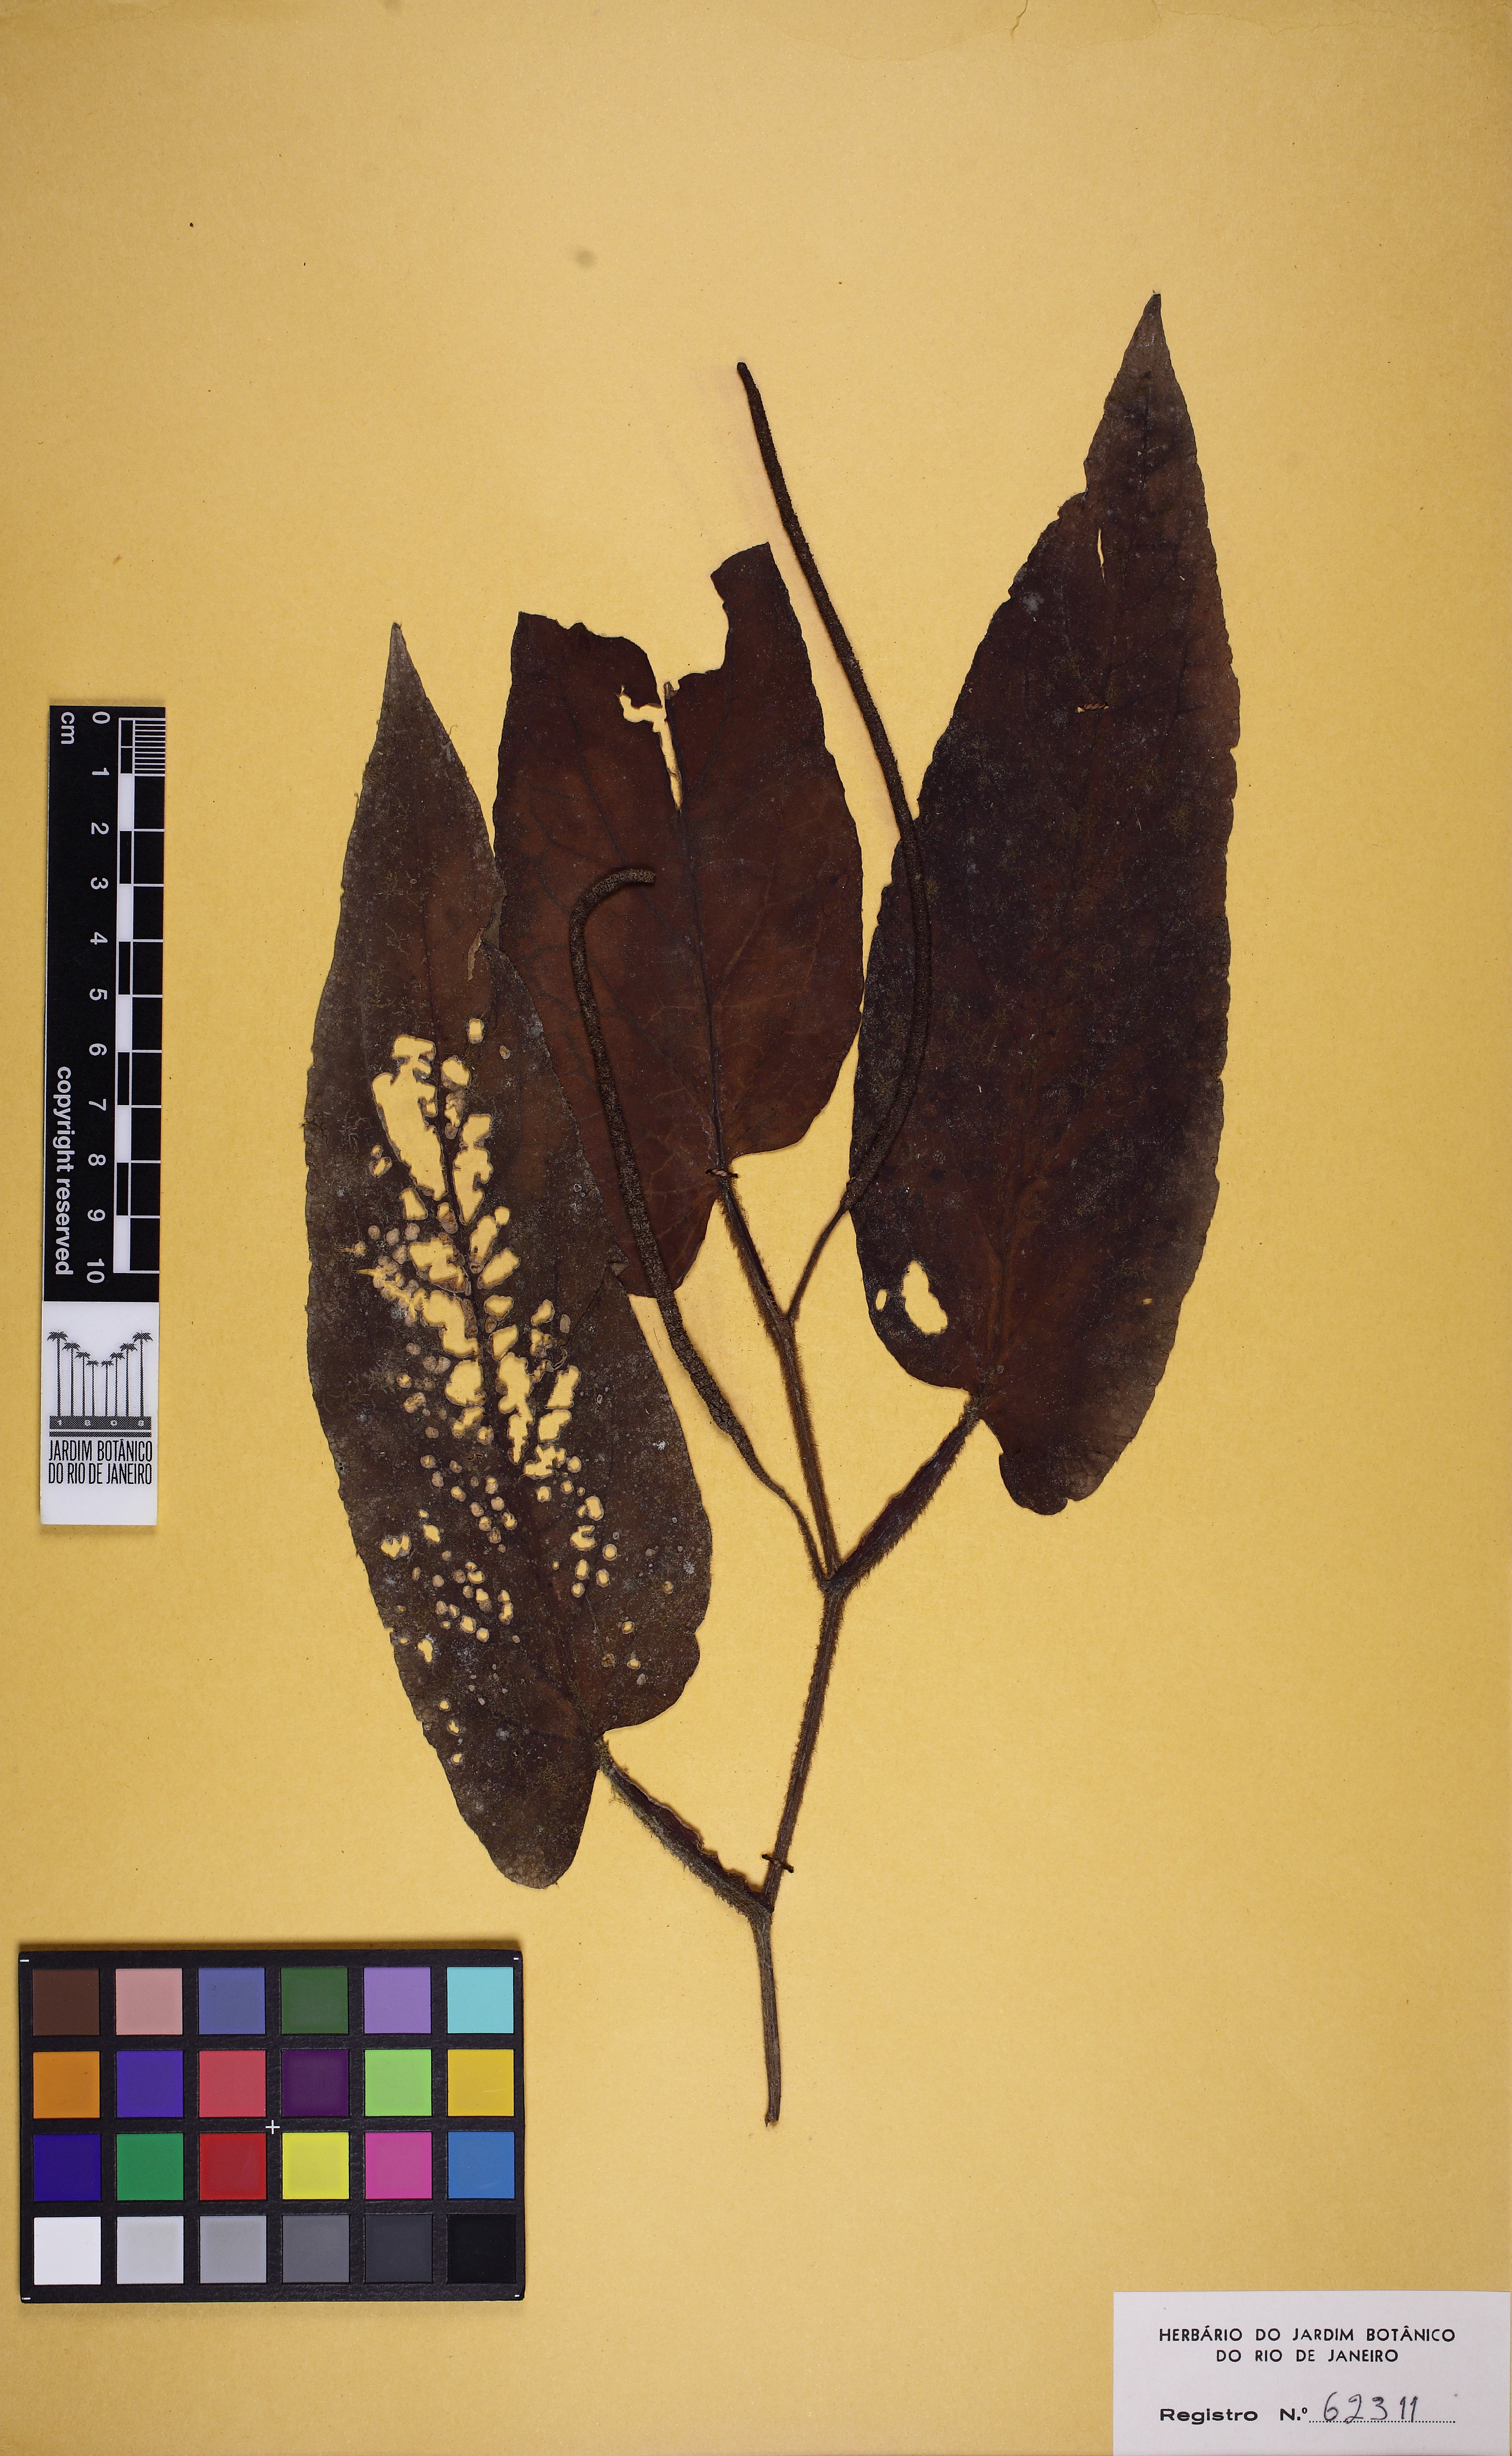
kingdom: Plantae
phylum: Tracheophyta
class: Magnoliopsida
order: Piperales
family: Piperaceae
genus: Piper
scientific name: Piper pseudopothifolium
